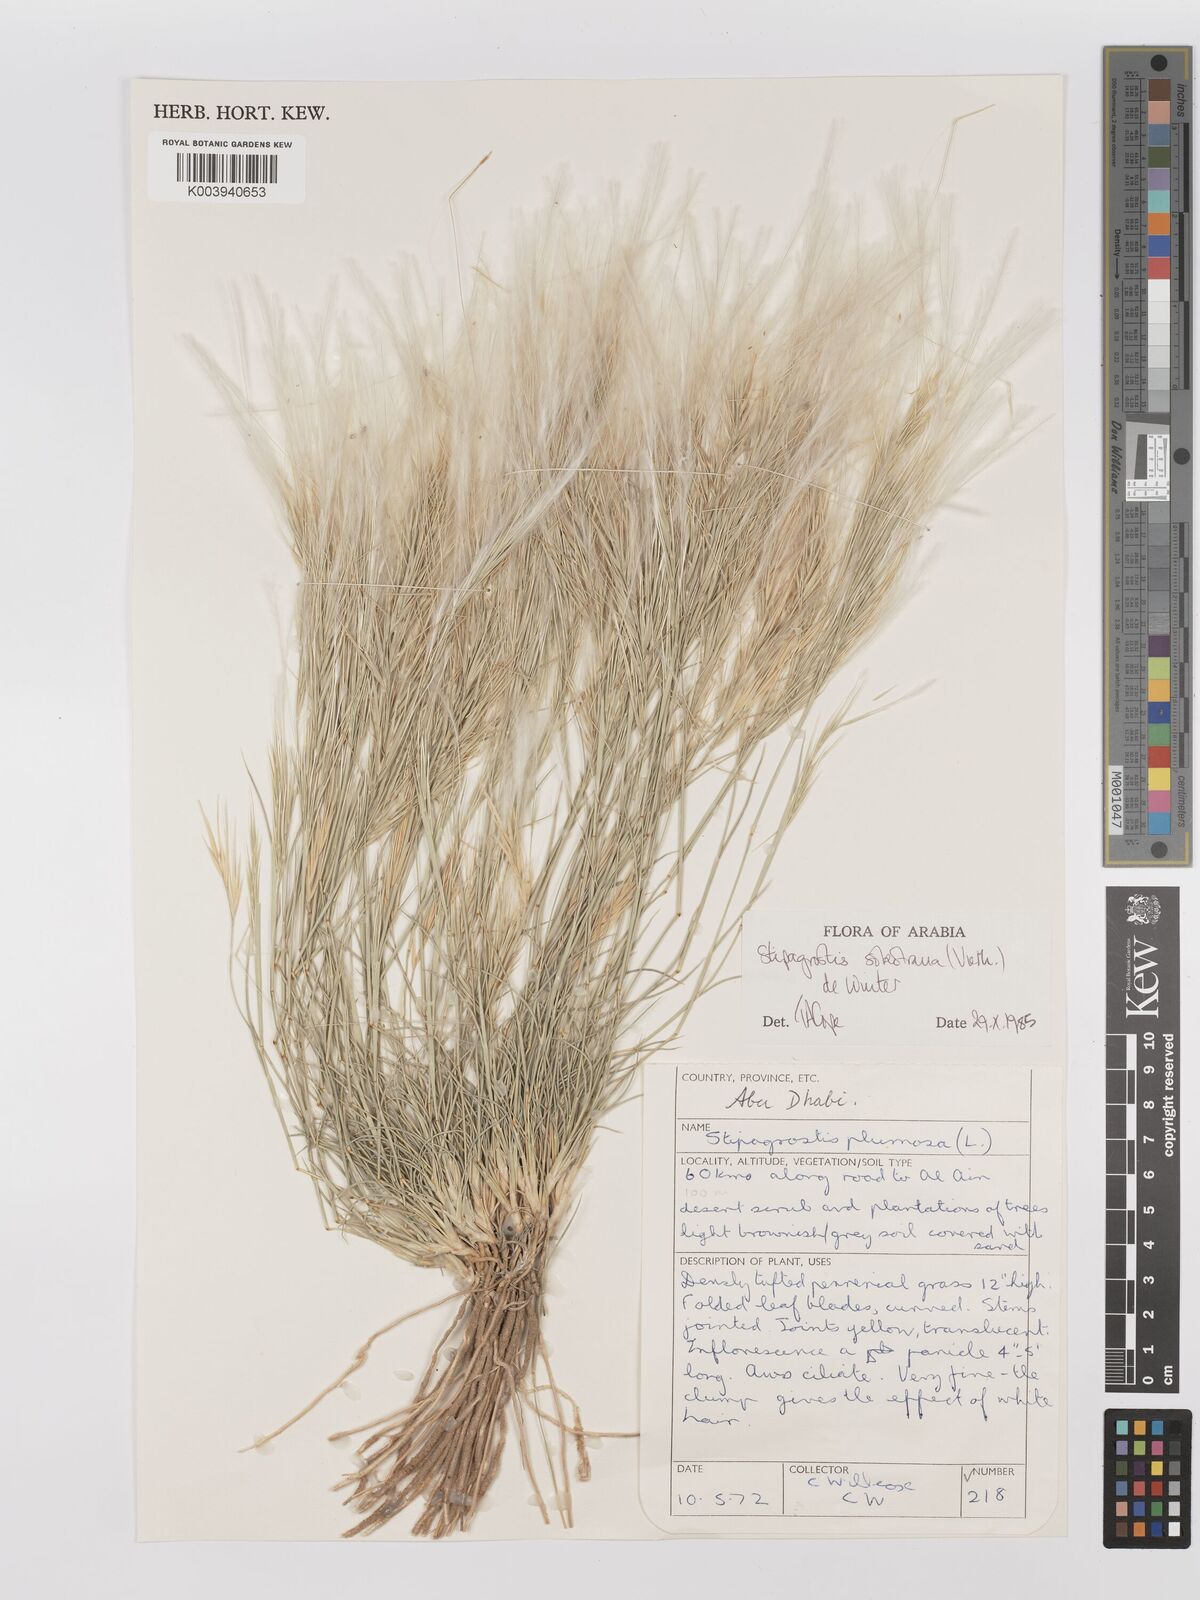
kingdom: Plantae
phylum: Tracheophyta
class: Liliopsida
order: Poales
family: Poaceae
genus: Stipagrostis
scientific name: Stipagrostis plumosa
